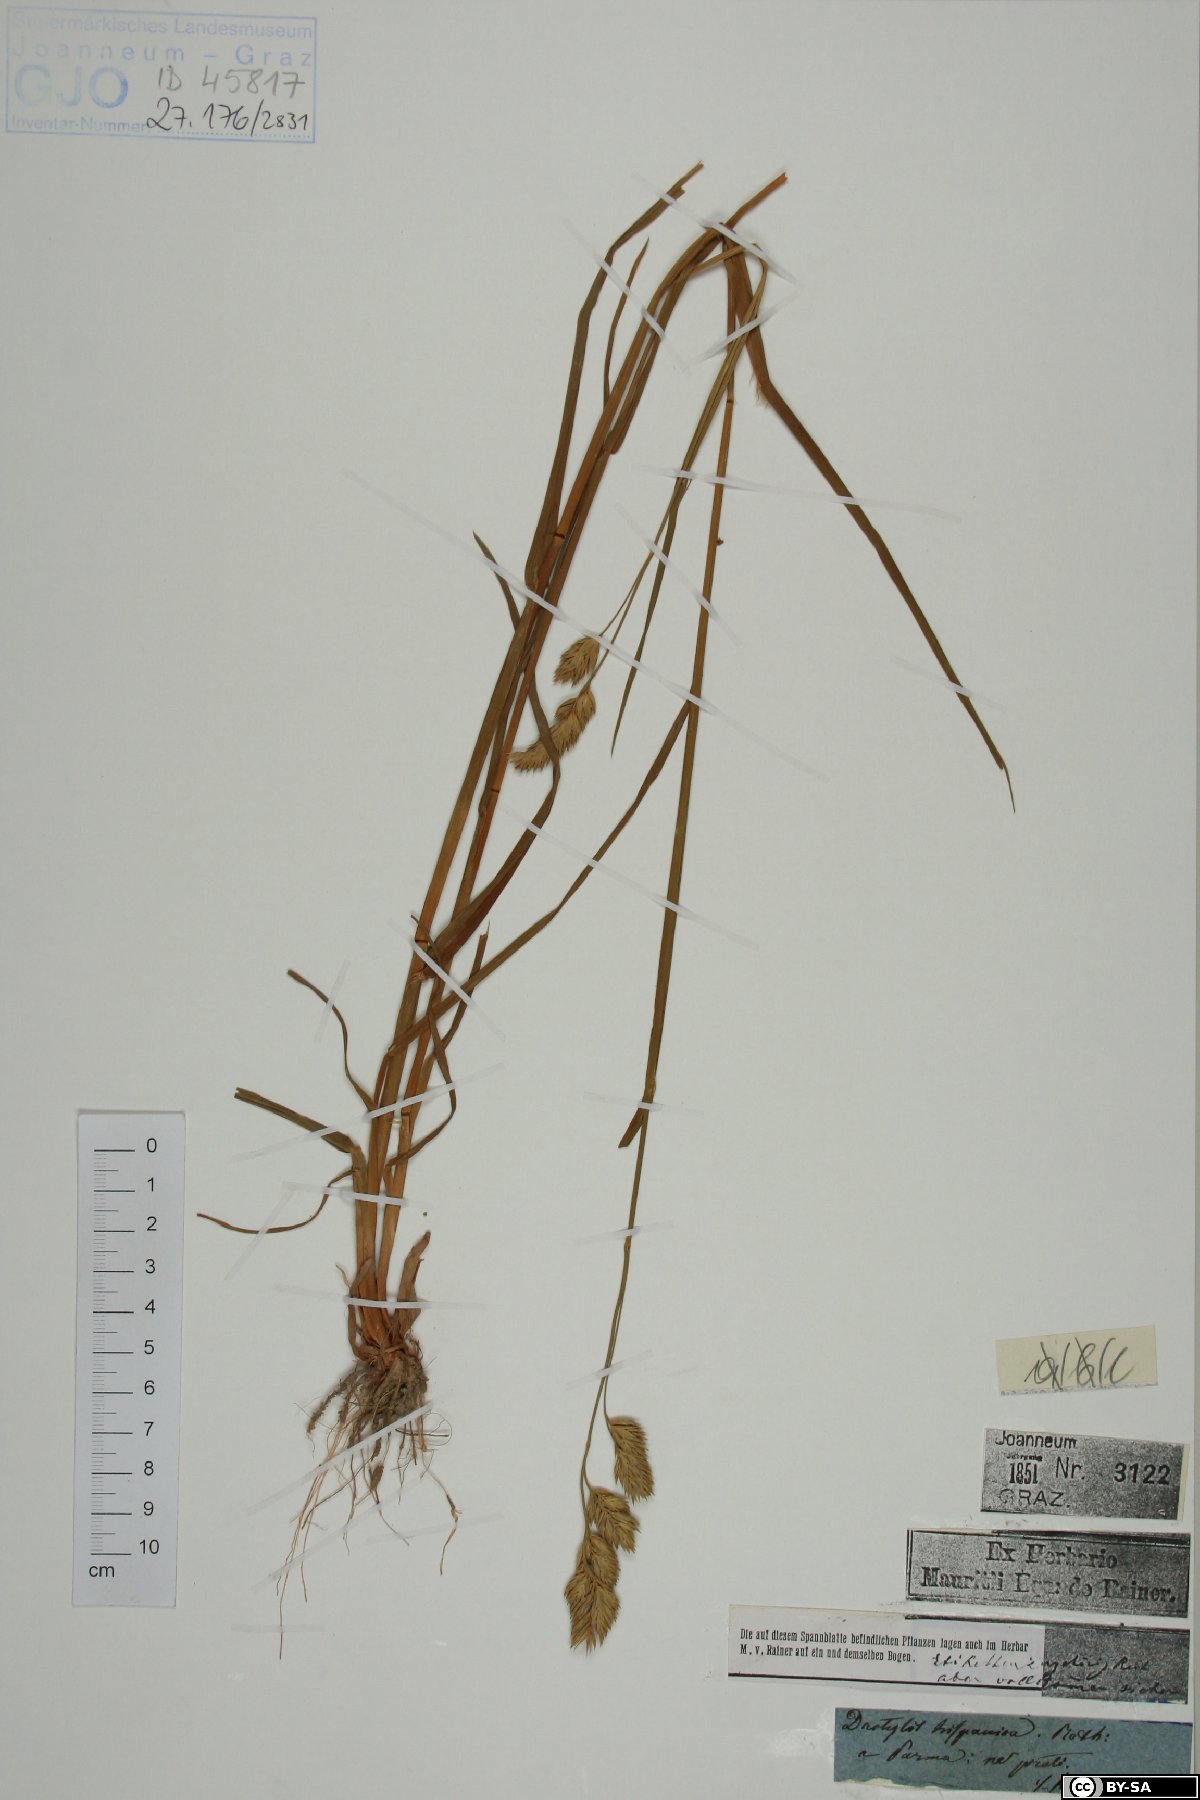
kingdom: Plantae
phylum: Tracheophyta
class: Liliopsida
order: Poales
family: Poaceae
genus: Dactylis
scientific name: Dactylis glomerata
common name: Orchardgrass
